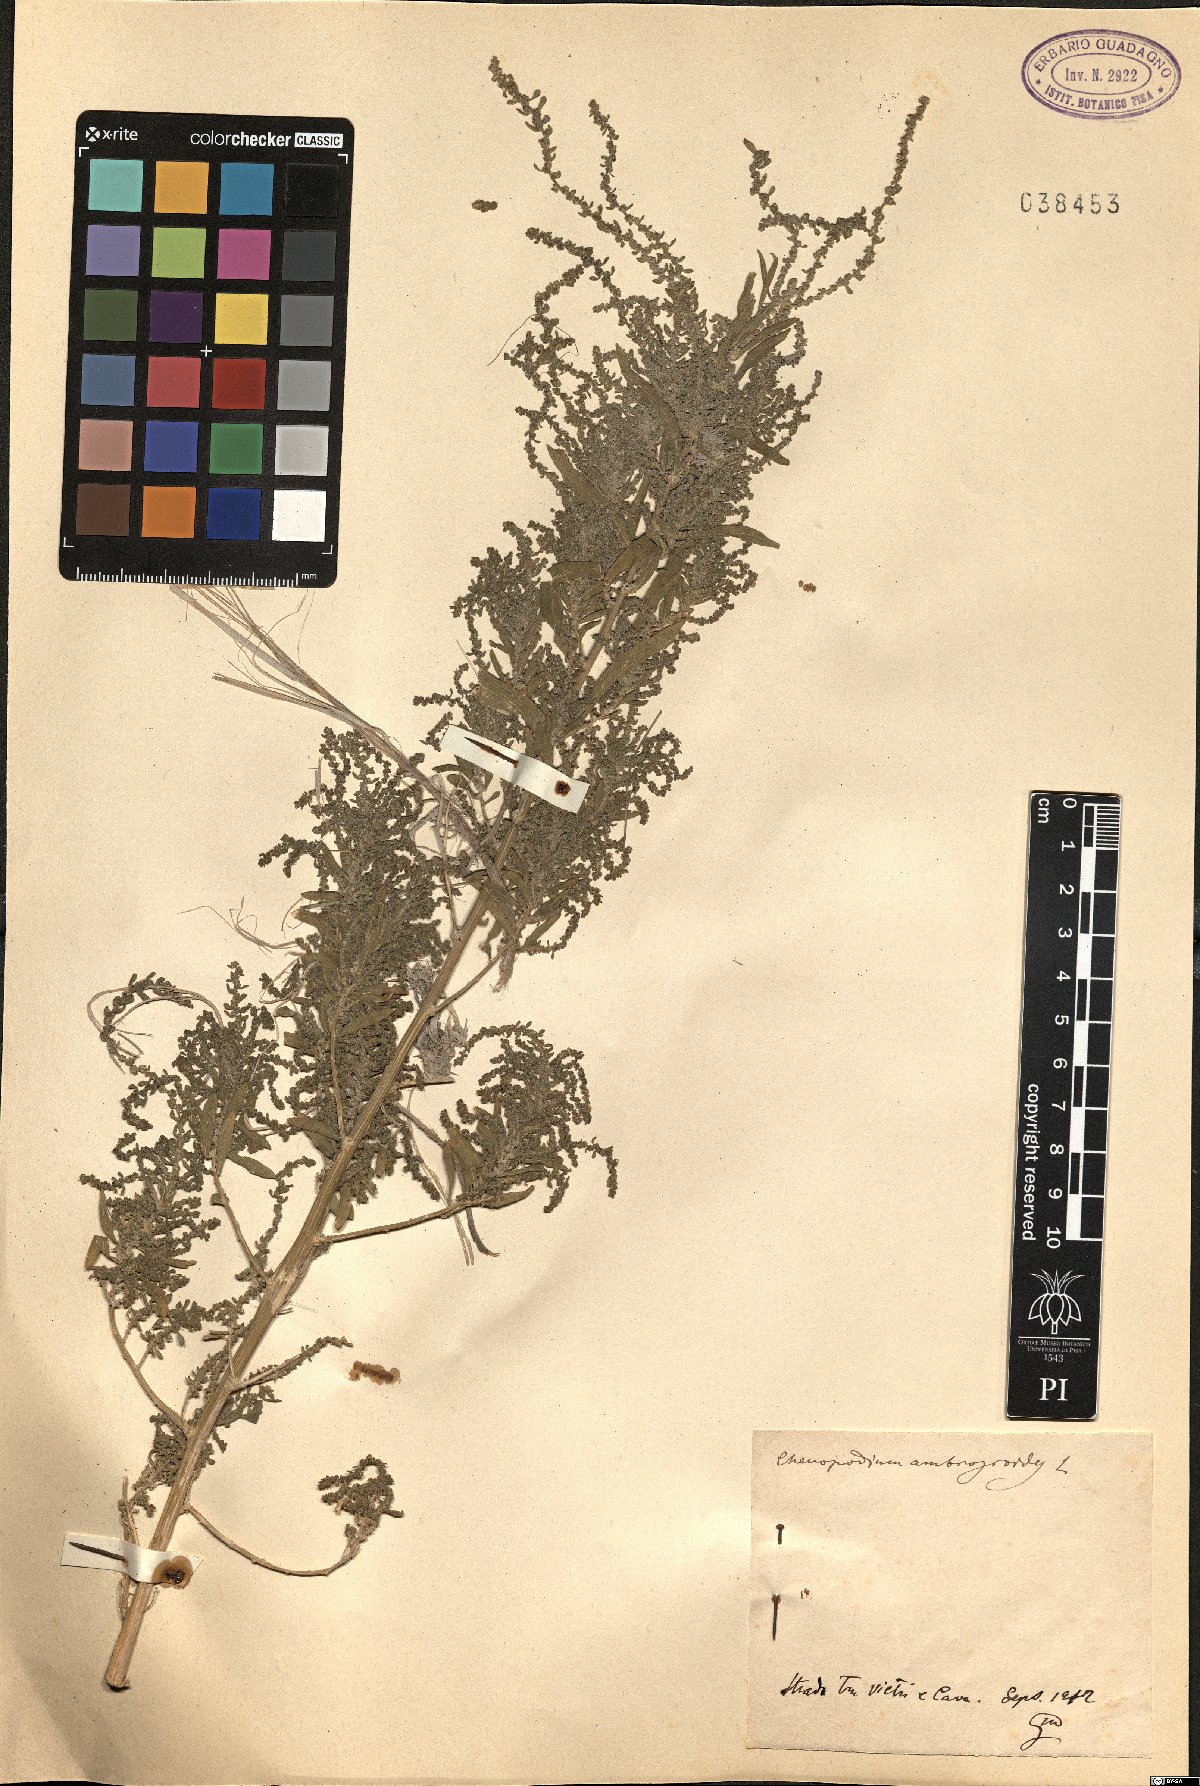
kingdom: Plantae
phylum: Tracheophyta
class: Magnoliopsida
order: Caryophyllales
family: Amaranthaceae
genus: Dysphania
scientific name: Dysphania ambrosioides
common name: Wormseed
